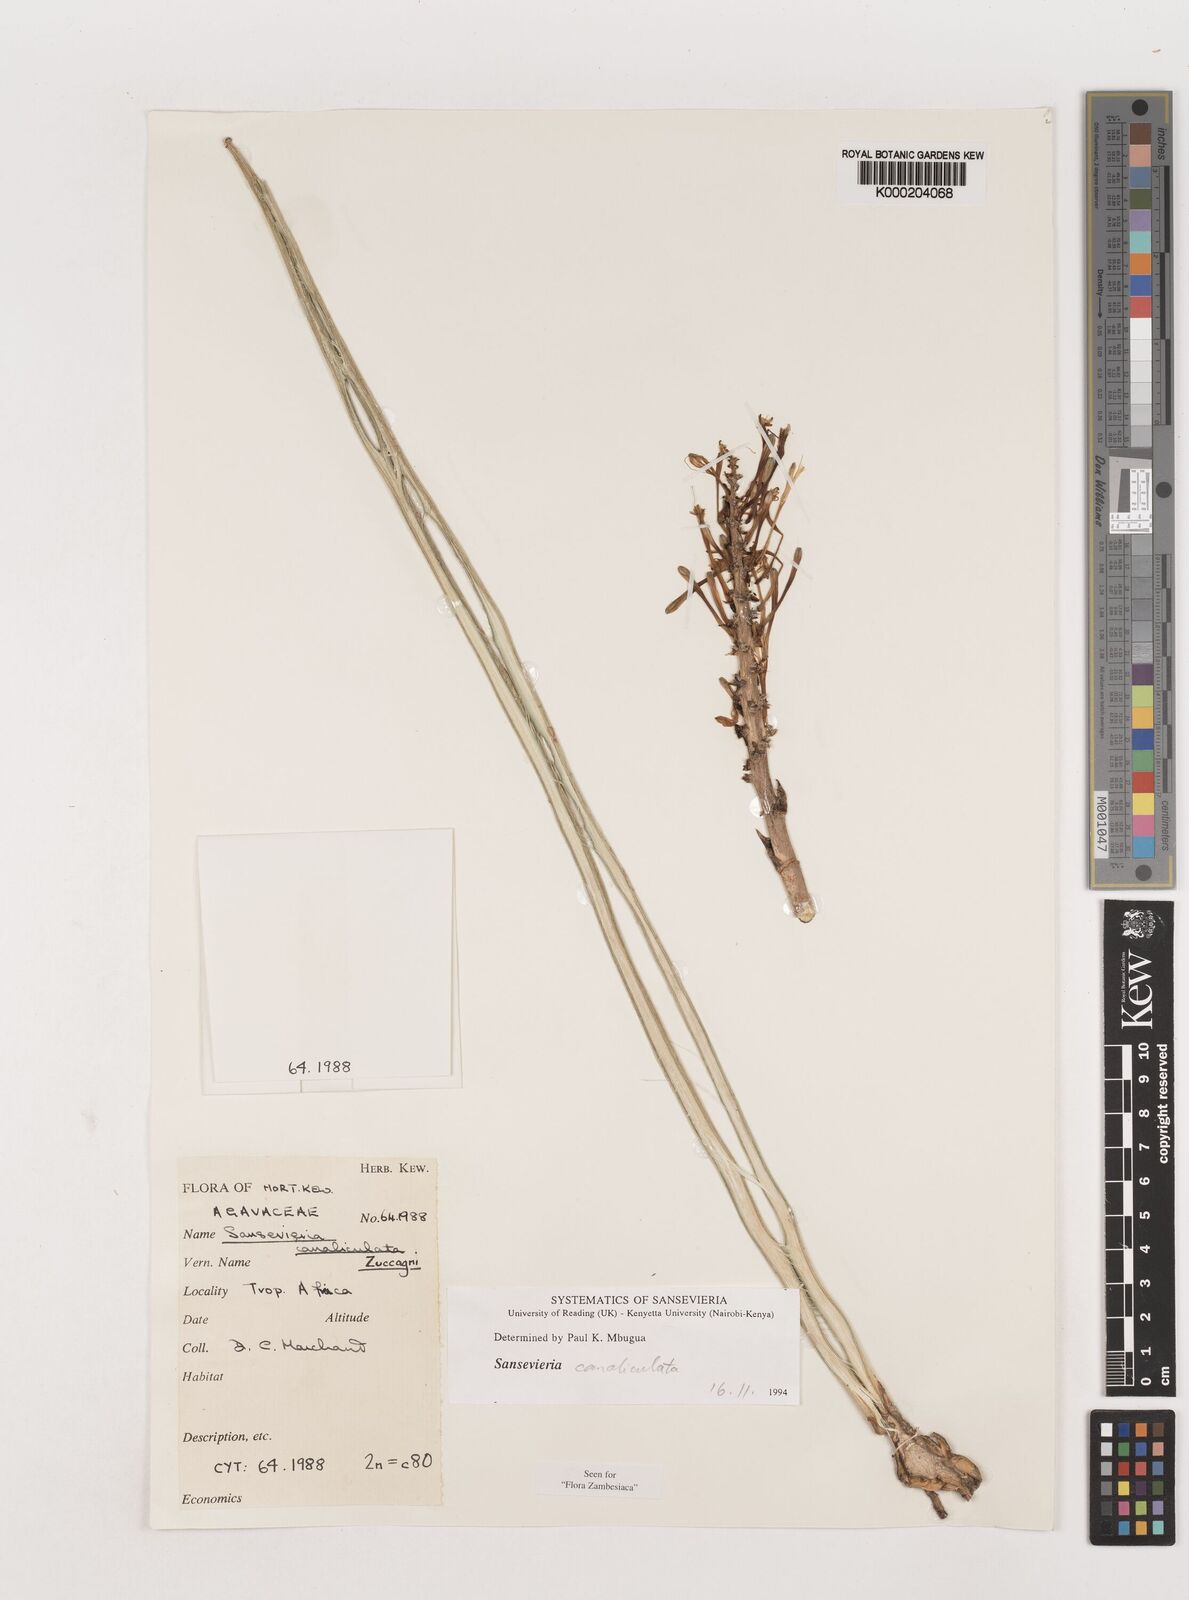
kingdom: Plantae
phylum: Tracheophyta
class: Liliopsida
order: Asparagales
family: Asparagaceae
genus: Dracaena
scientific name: Dracaena
